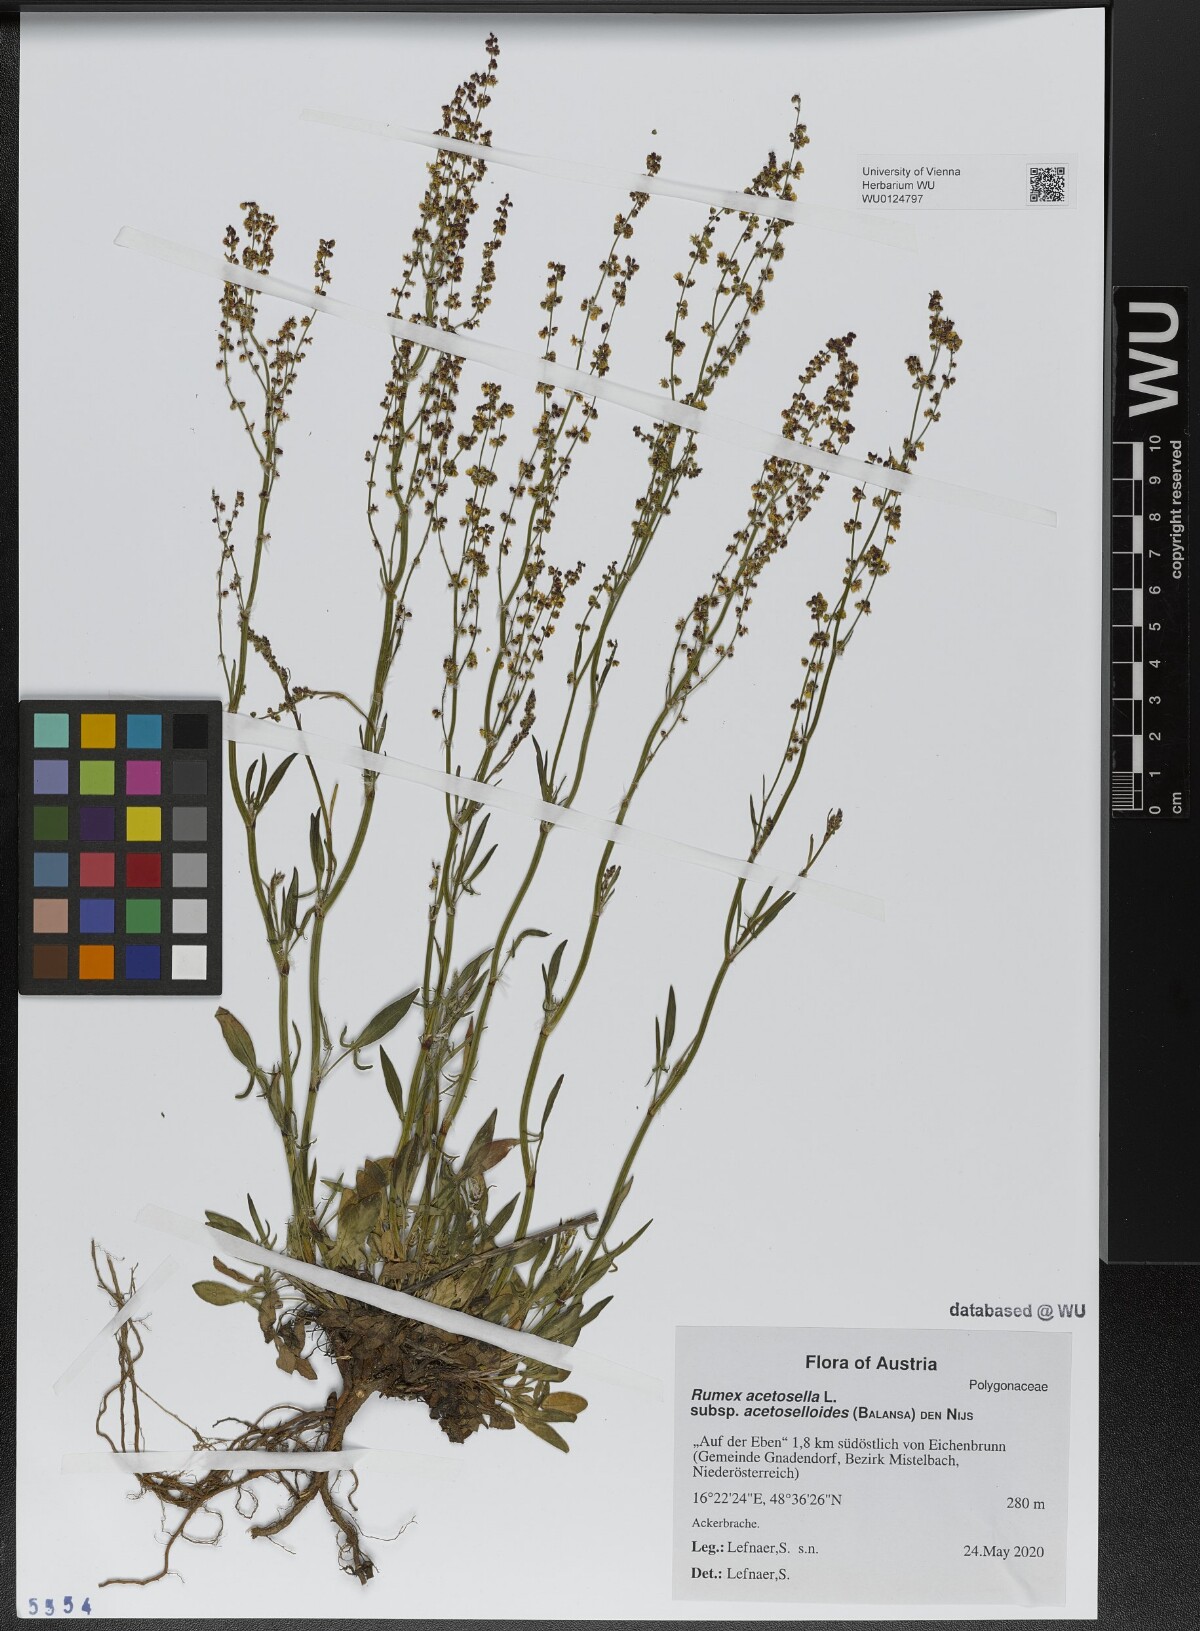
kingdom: Plantae
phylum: Tracheophyta
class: Magnoliopsida
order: Caryophyllales
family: Polygonaceae
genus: Rumex
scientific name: Rumex acetosella
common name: Common sheep sorrel
